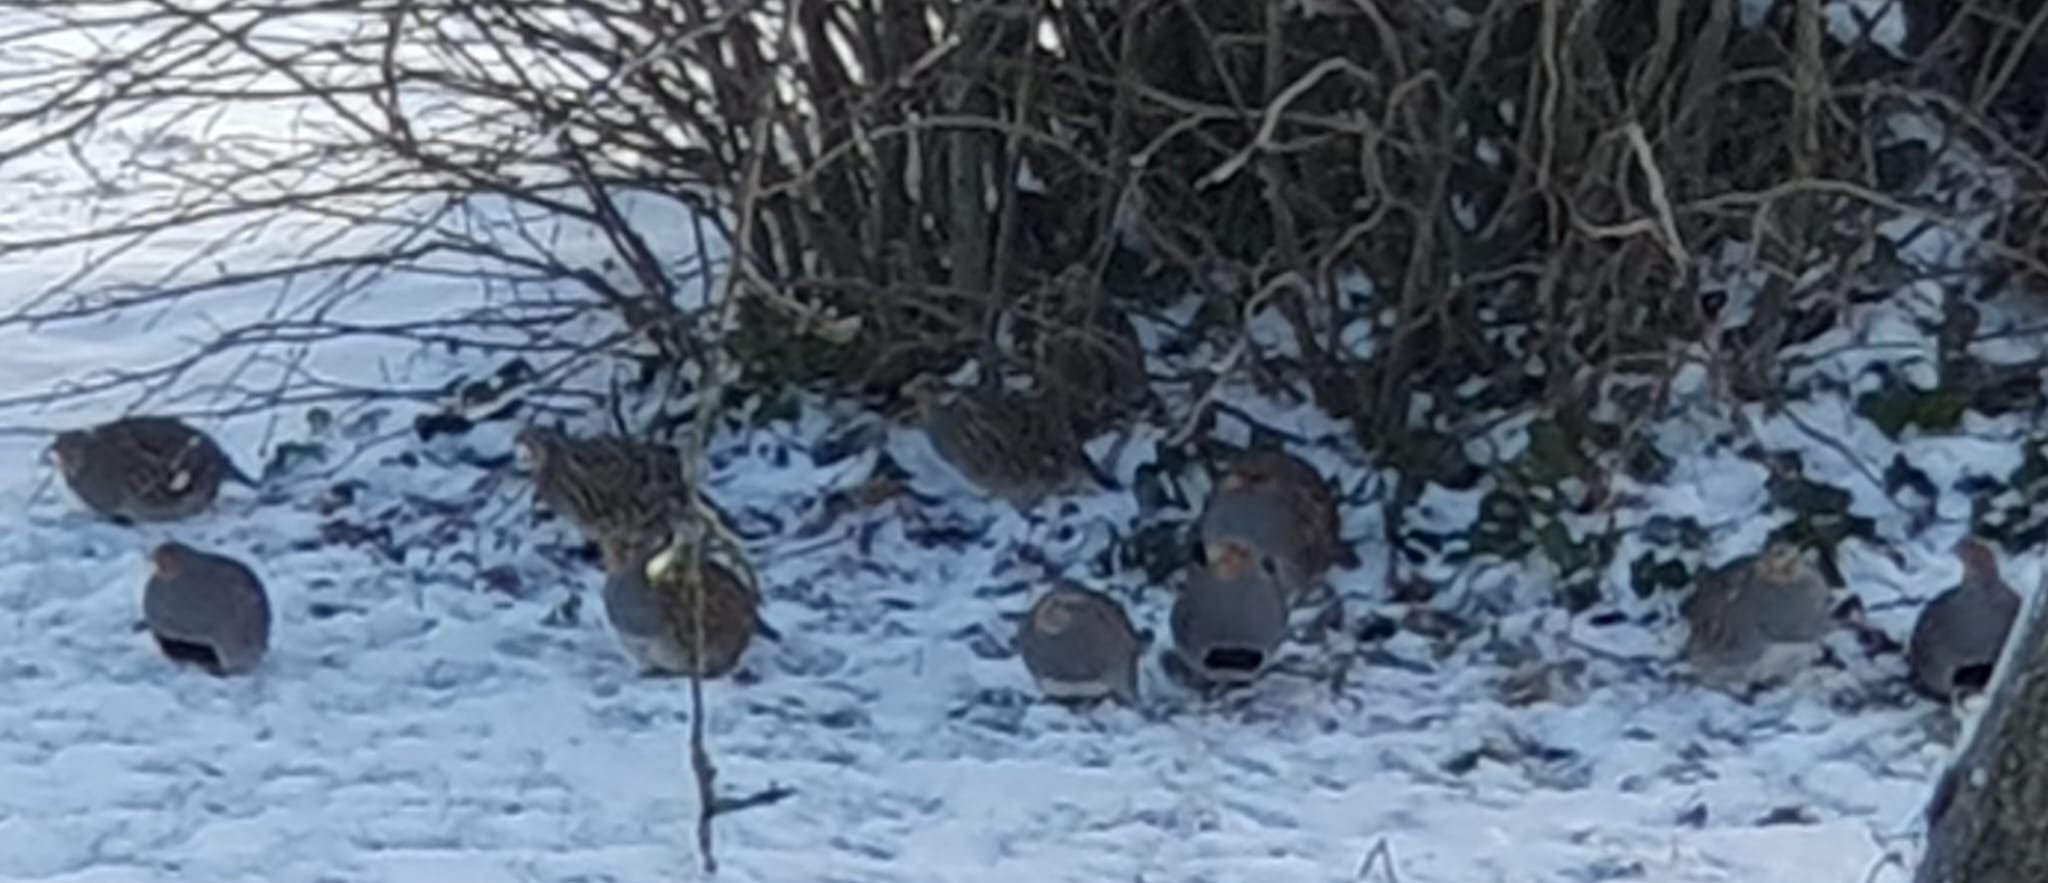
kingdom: Animalia
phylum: Chordata
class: Aves
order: Galliformes
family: Phasianidae
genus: Perdix
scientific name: Perdix perdix
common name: Agerhøne
